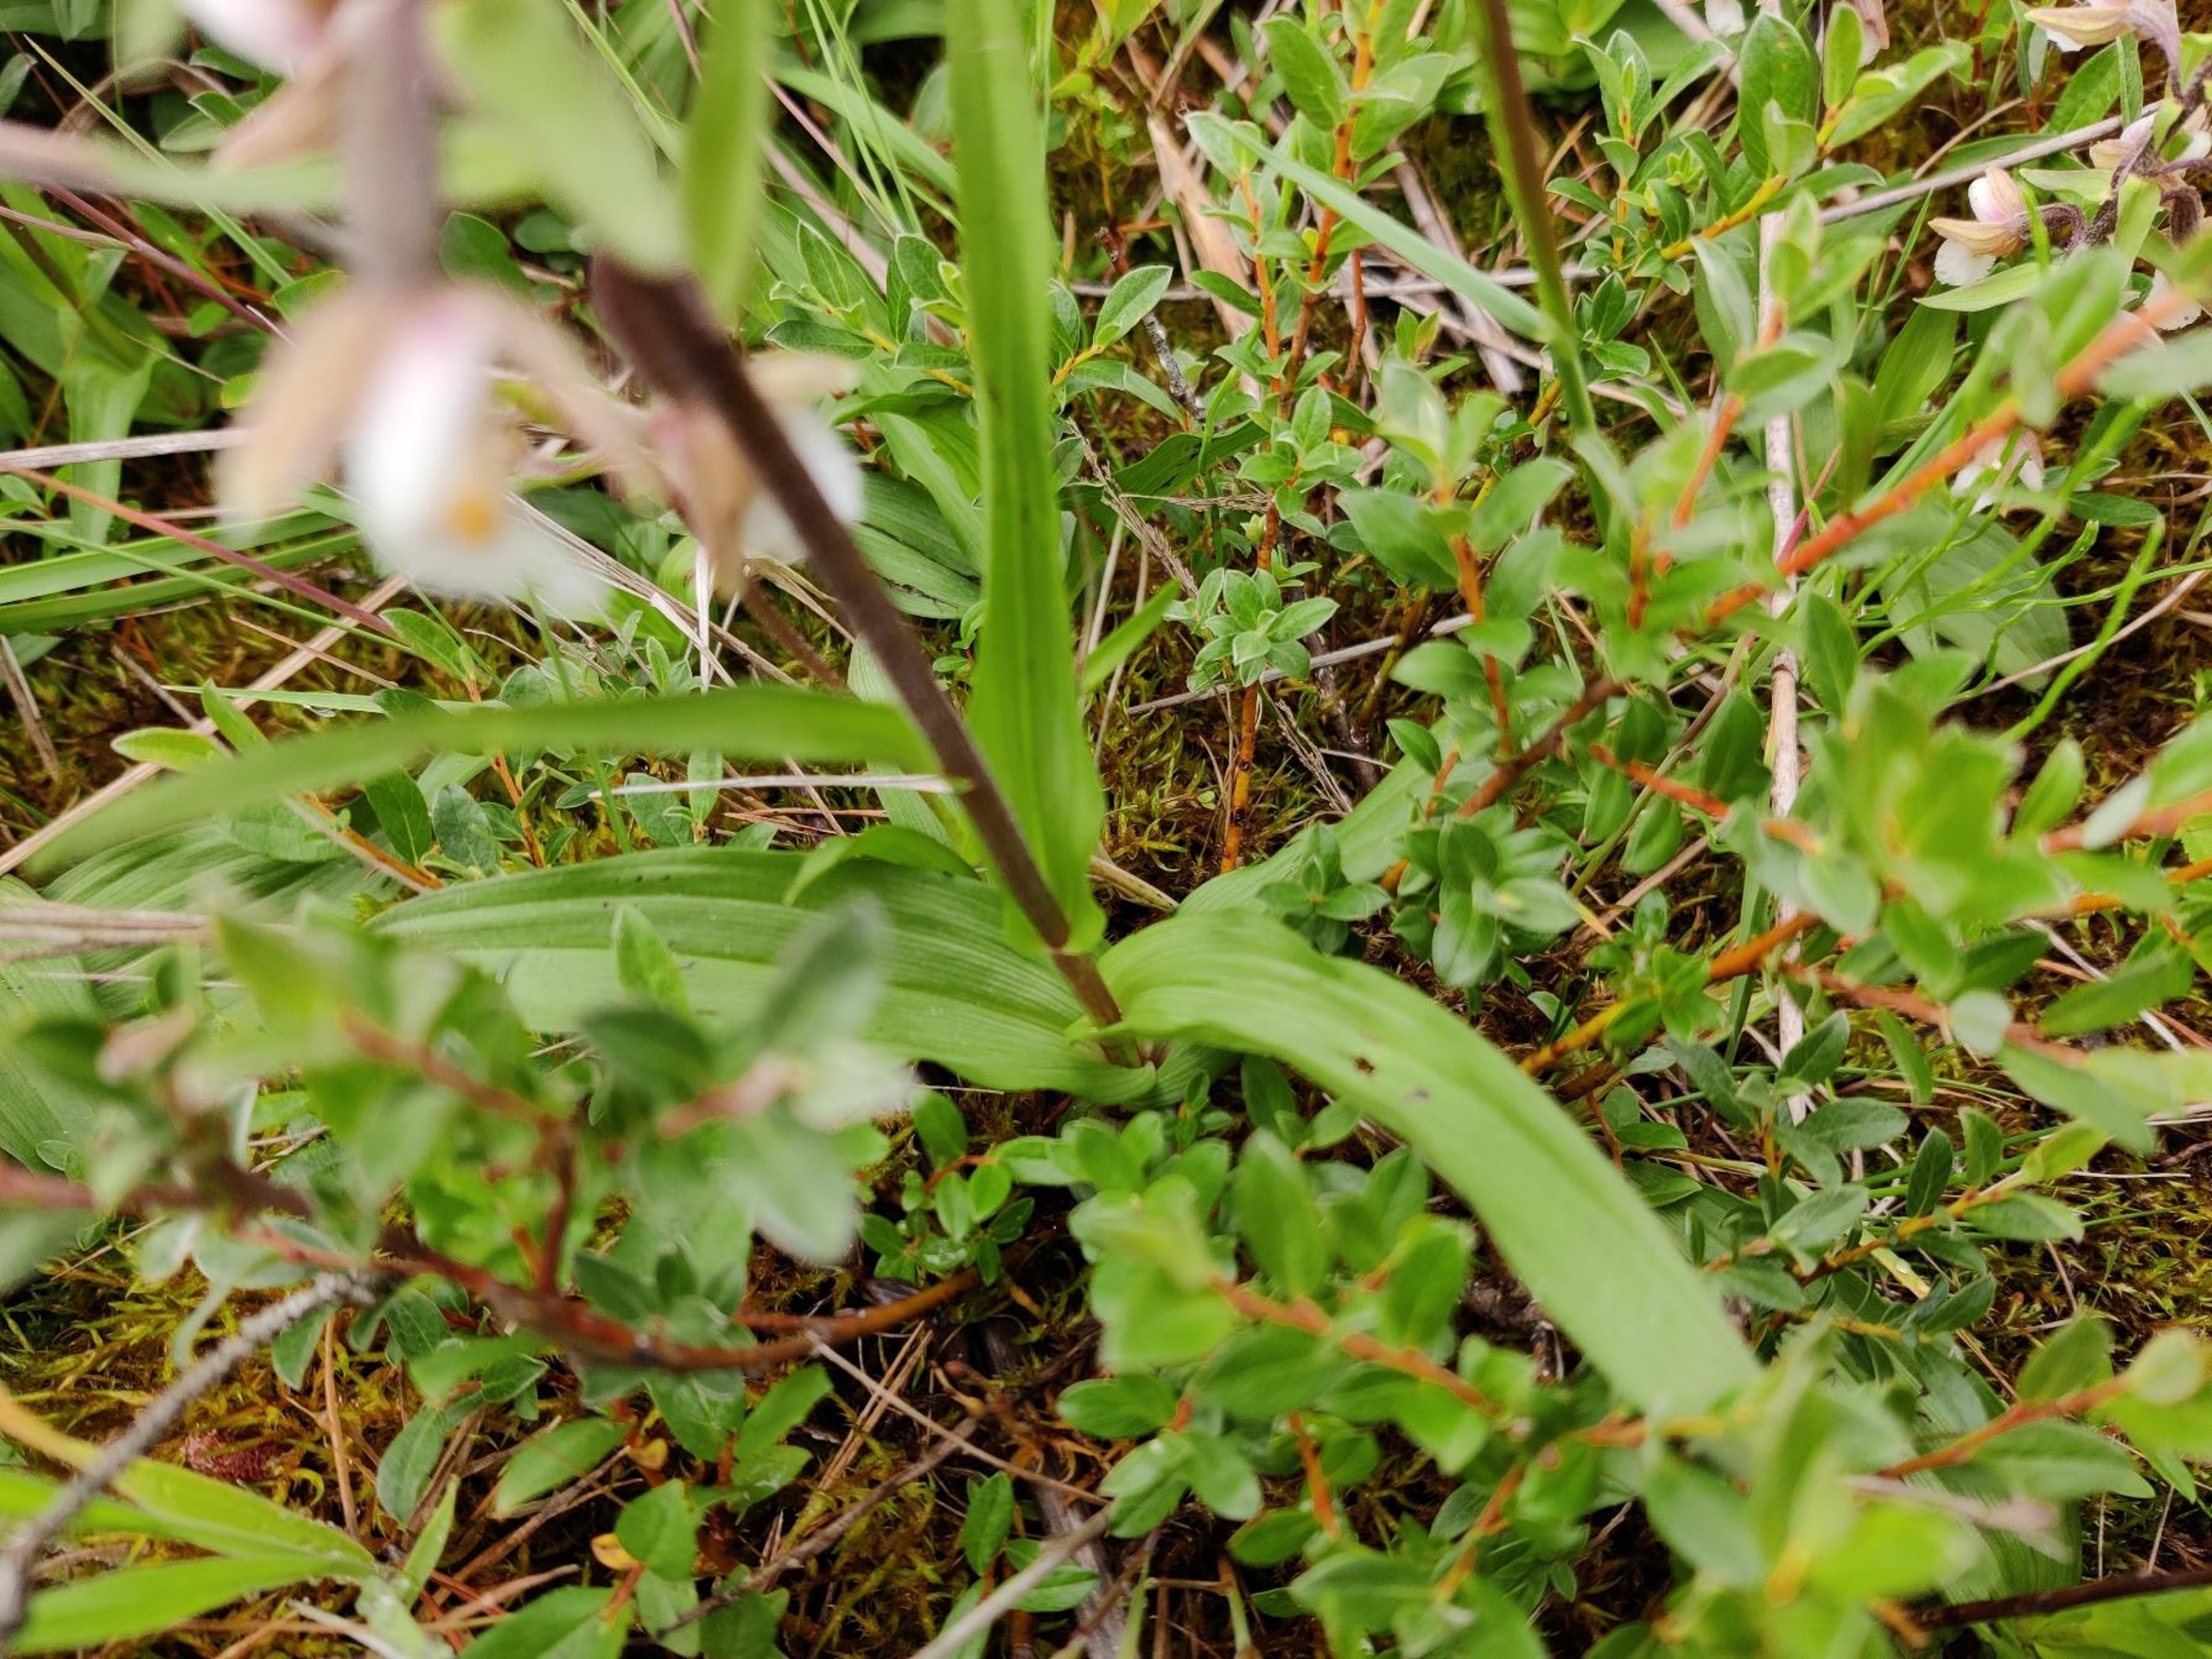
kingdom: Plantae
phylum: Tracheophyta
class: Liliopsida
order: Asparagales
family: Orchidaceae
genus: Epipactis
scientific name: Epipactis palustris
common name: Sump-hullæbe
